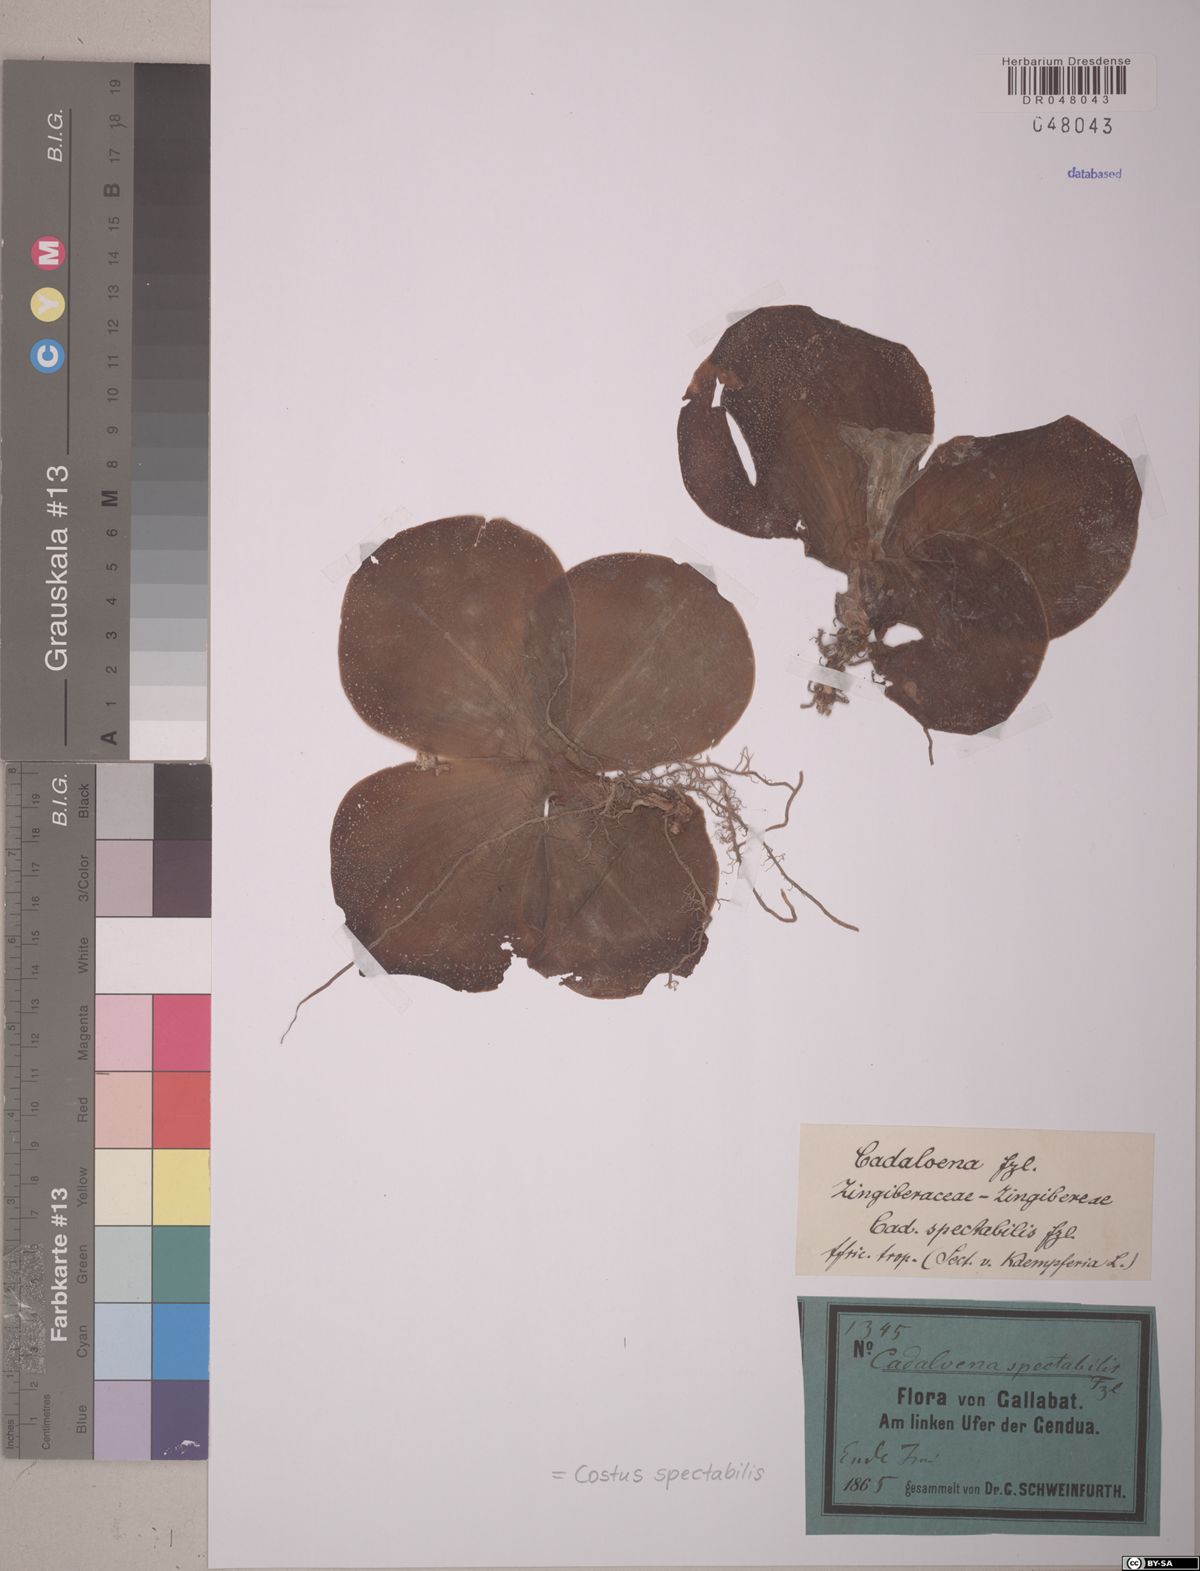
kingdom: Plantae
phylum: Tracheophyta
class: Liliopsida
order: Zingiberales
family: Costaceae
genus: Costus
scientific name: Costus spectabilis
